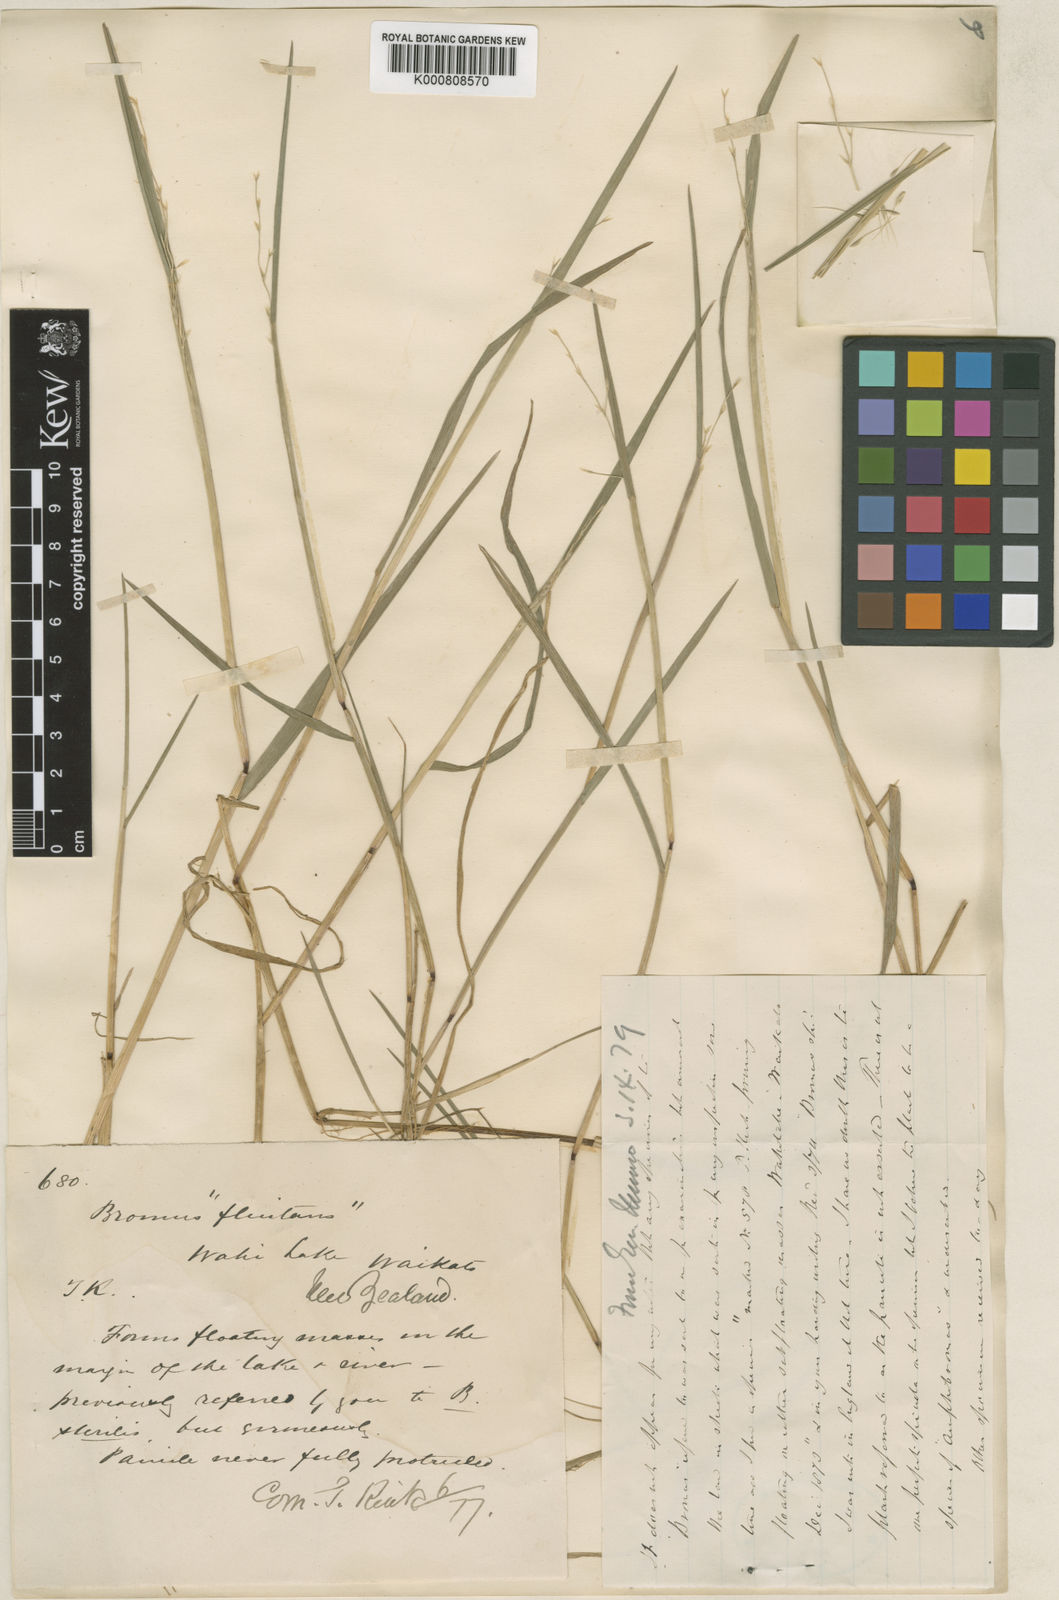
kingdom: Plantae
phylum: Tracheophyta
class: Liliopsida
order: Poales
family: Poaceae
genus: Helictotrichon
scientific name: Helictotrichon
